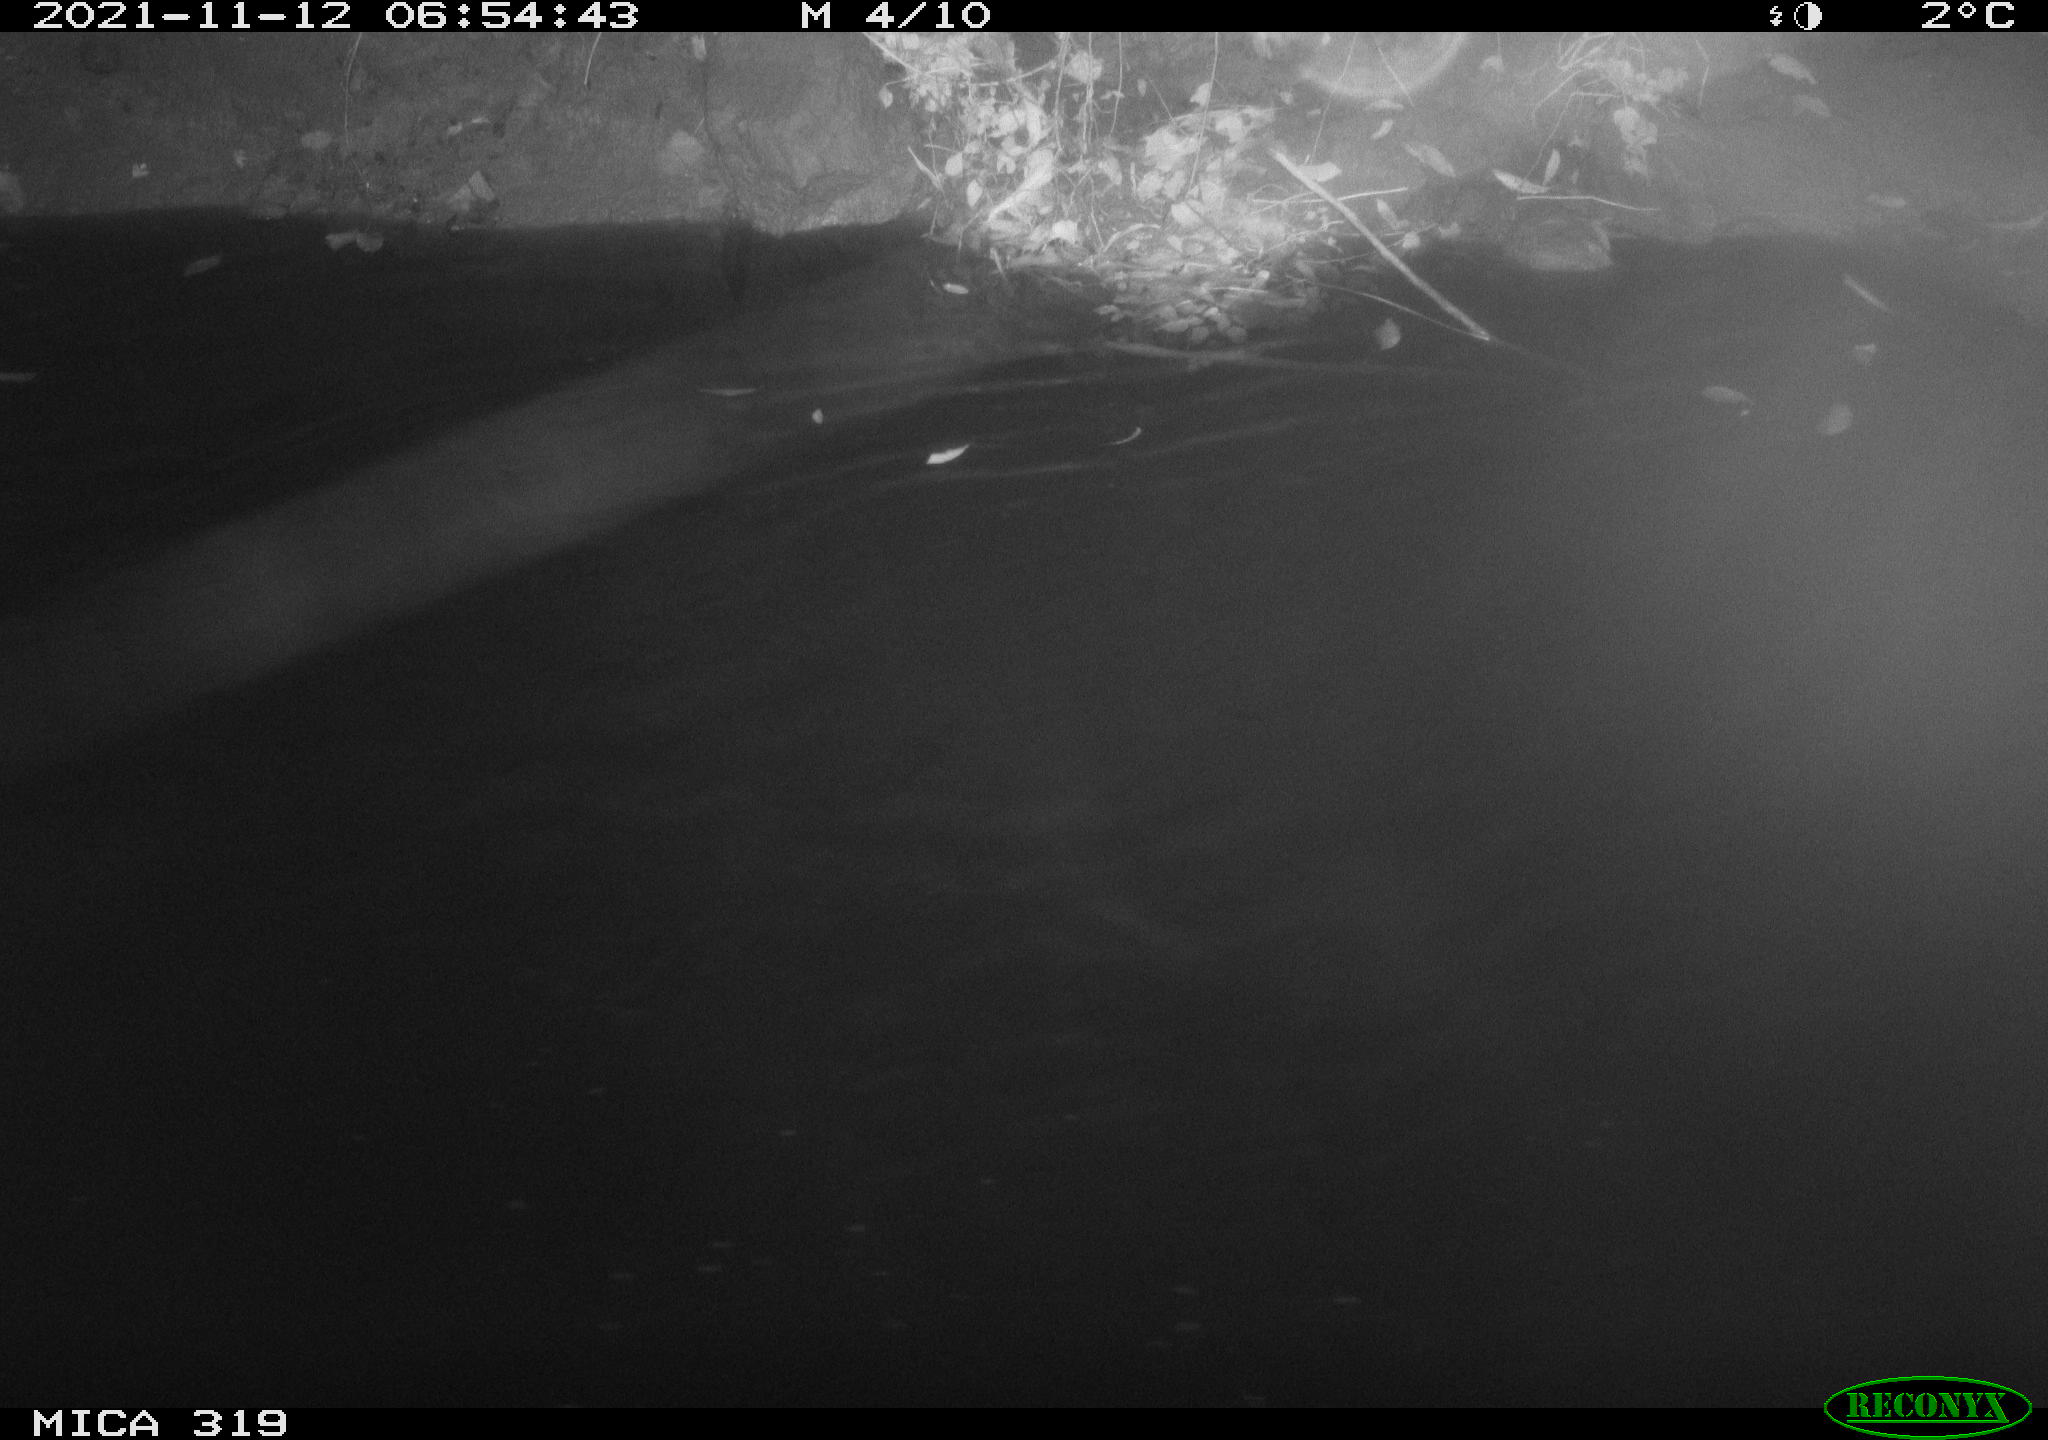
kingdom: Animalia
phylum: Chordata
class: Aves
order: Anseriformes
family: Anatidae
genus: Anas
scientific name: Anas platyrhynchos
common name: Mallard
